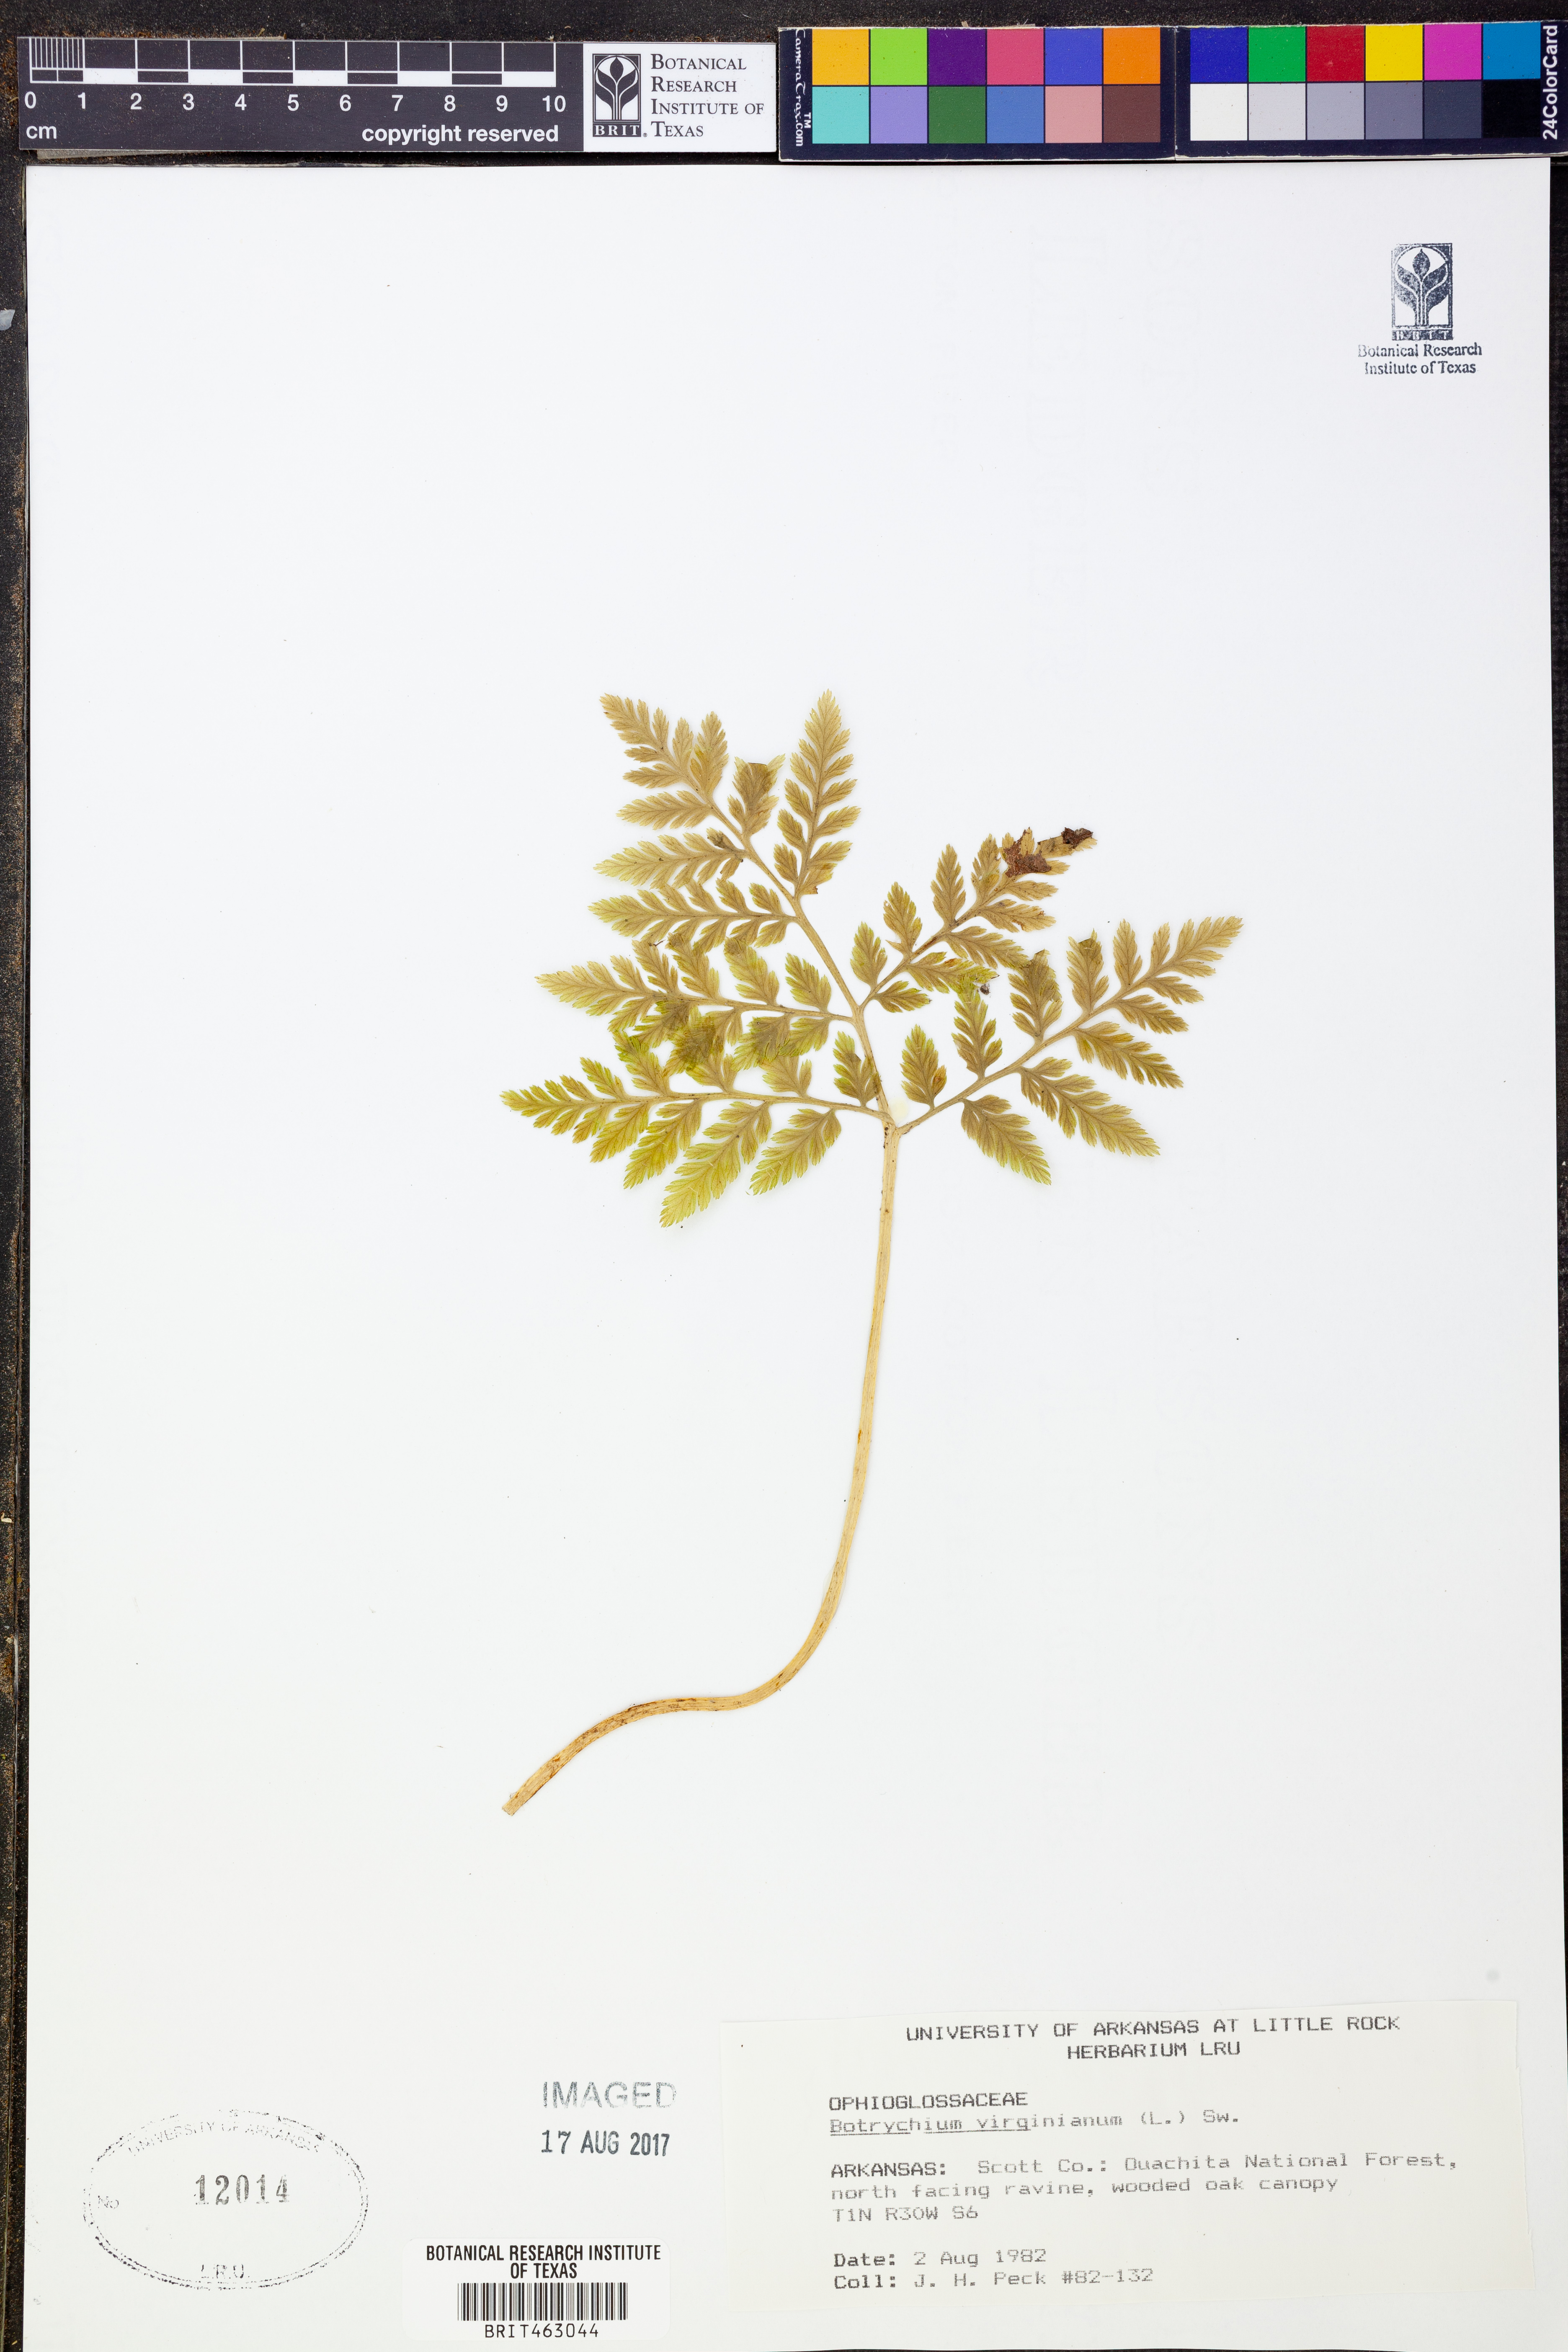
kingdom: Plantae
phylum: Tracheophyta
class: Polypodiopsida
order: Ophioglossales
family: Ophioglossaceae
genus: Botrypus
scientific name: Botrypus virginianus
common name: Common grapefern
